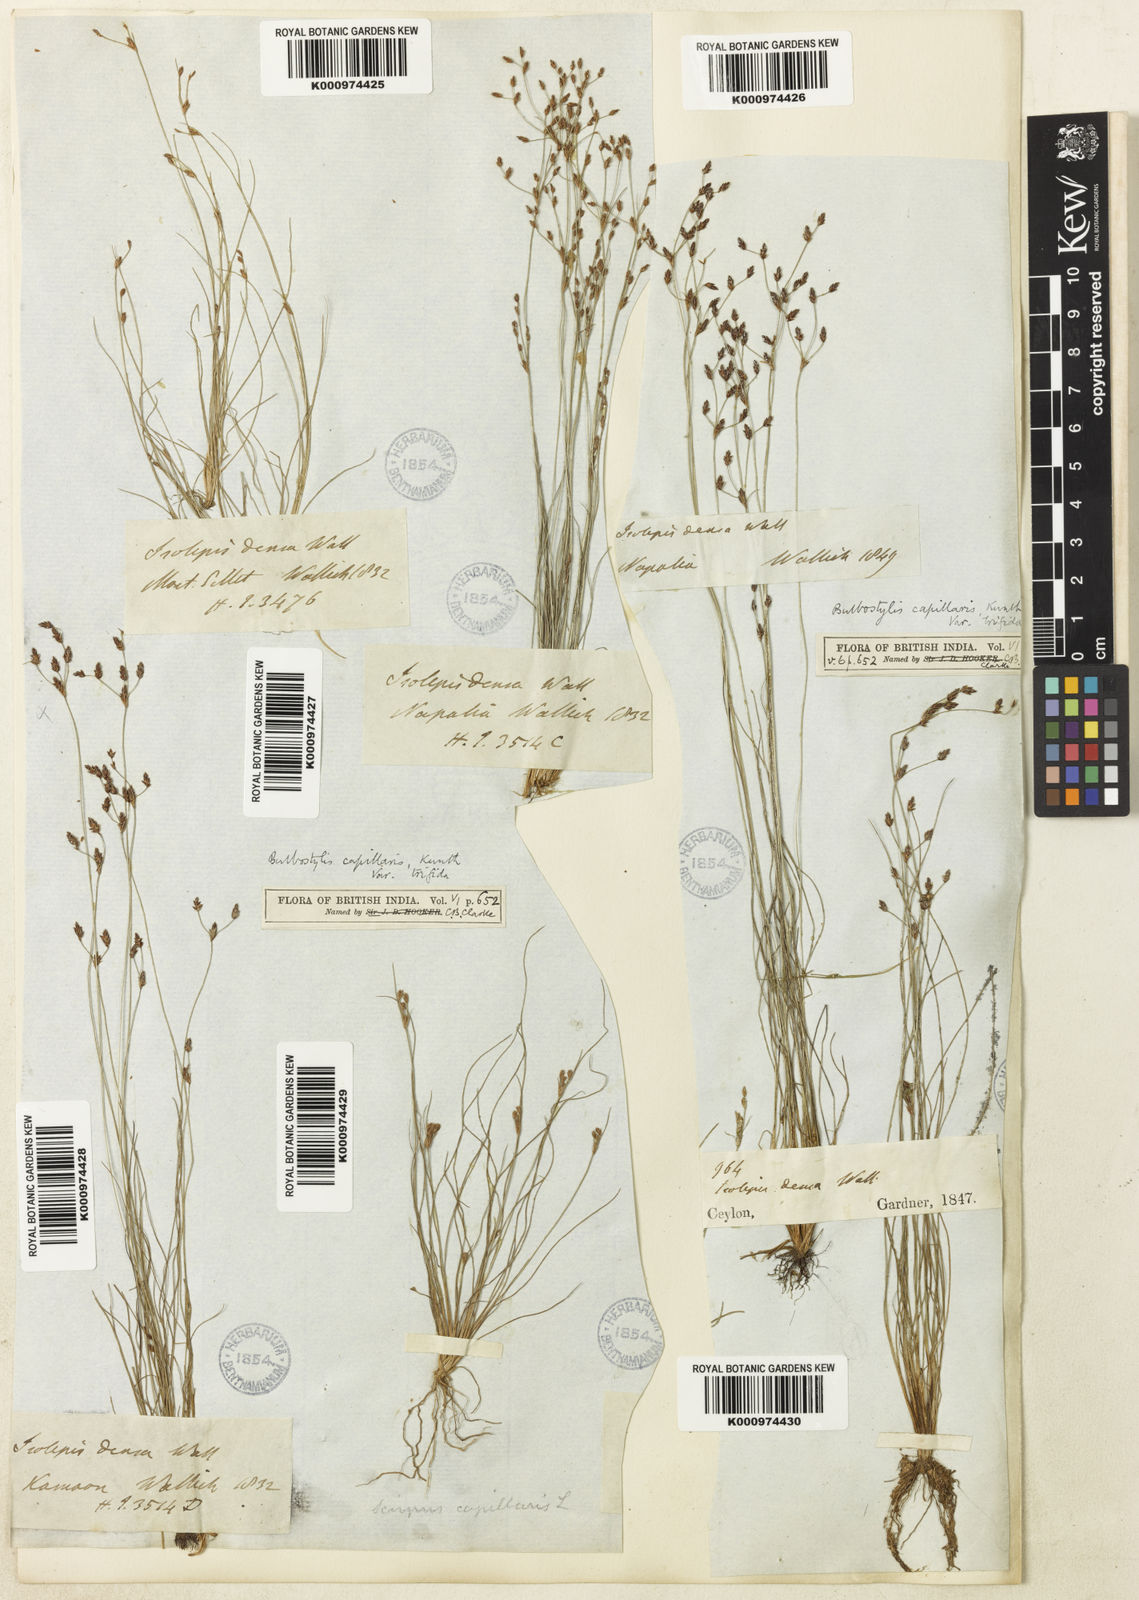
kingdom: Plantae
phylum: Tracheophyta
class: Liliopsida
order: Poales
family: Cyperaceae
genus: Bulbostylis
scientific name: Bulbostylis capillaris
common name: Densetuft hairsedge
